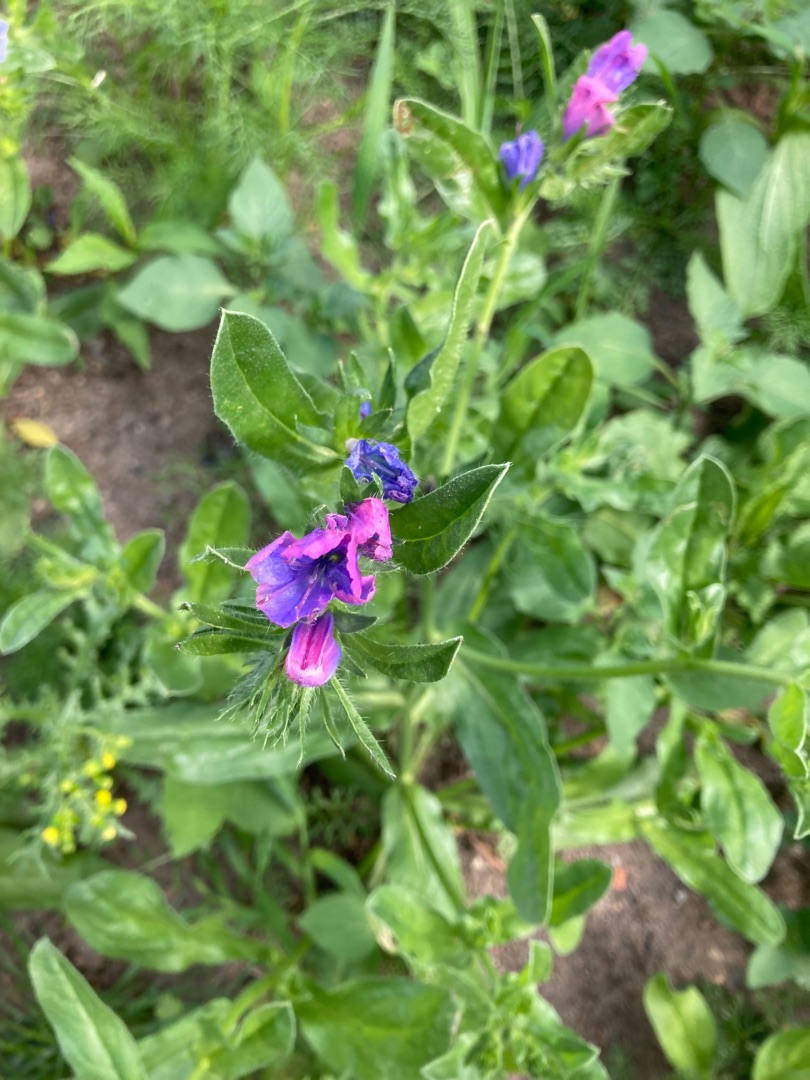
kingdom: Plantae
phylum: Tracheophyta
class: Magnoliopsida
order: Boraginales
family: Boraginaceae
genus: Echium
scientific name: Echium
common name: Slangehovedslægten
